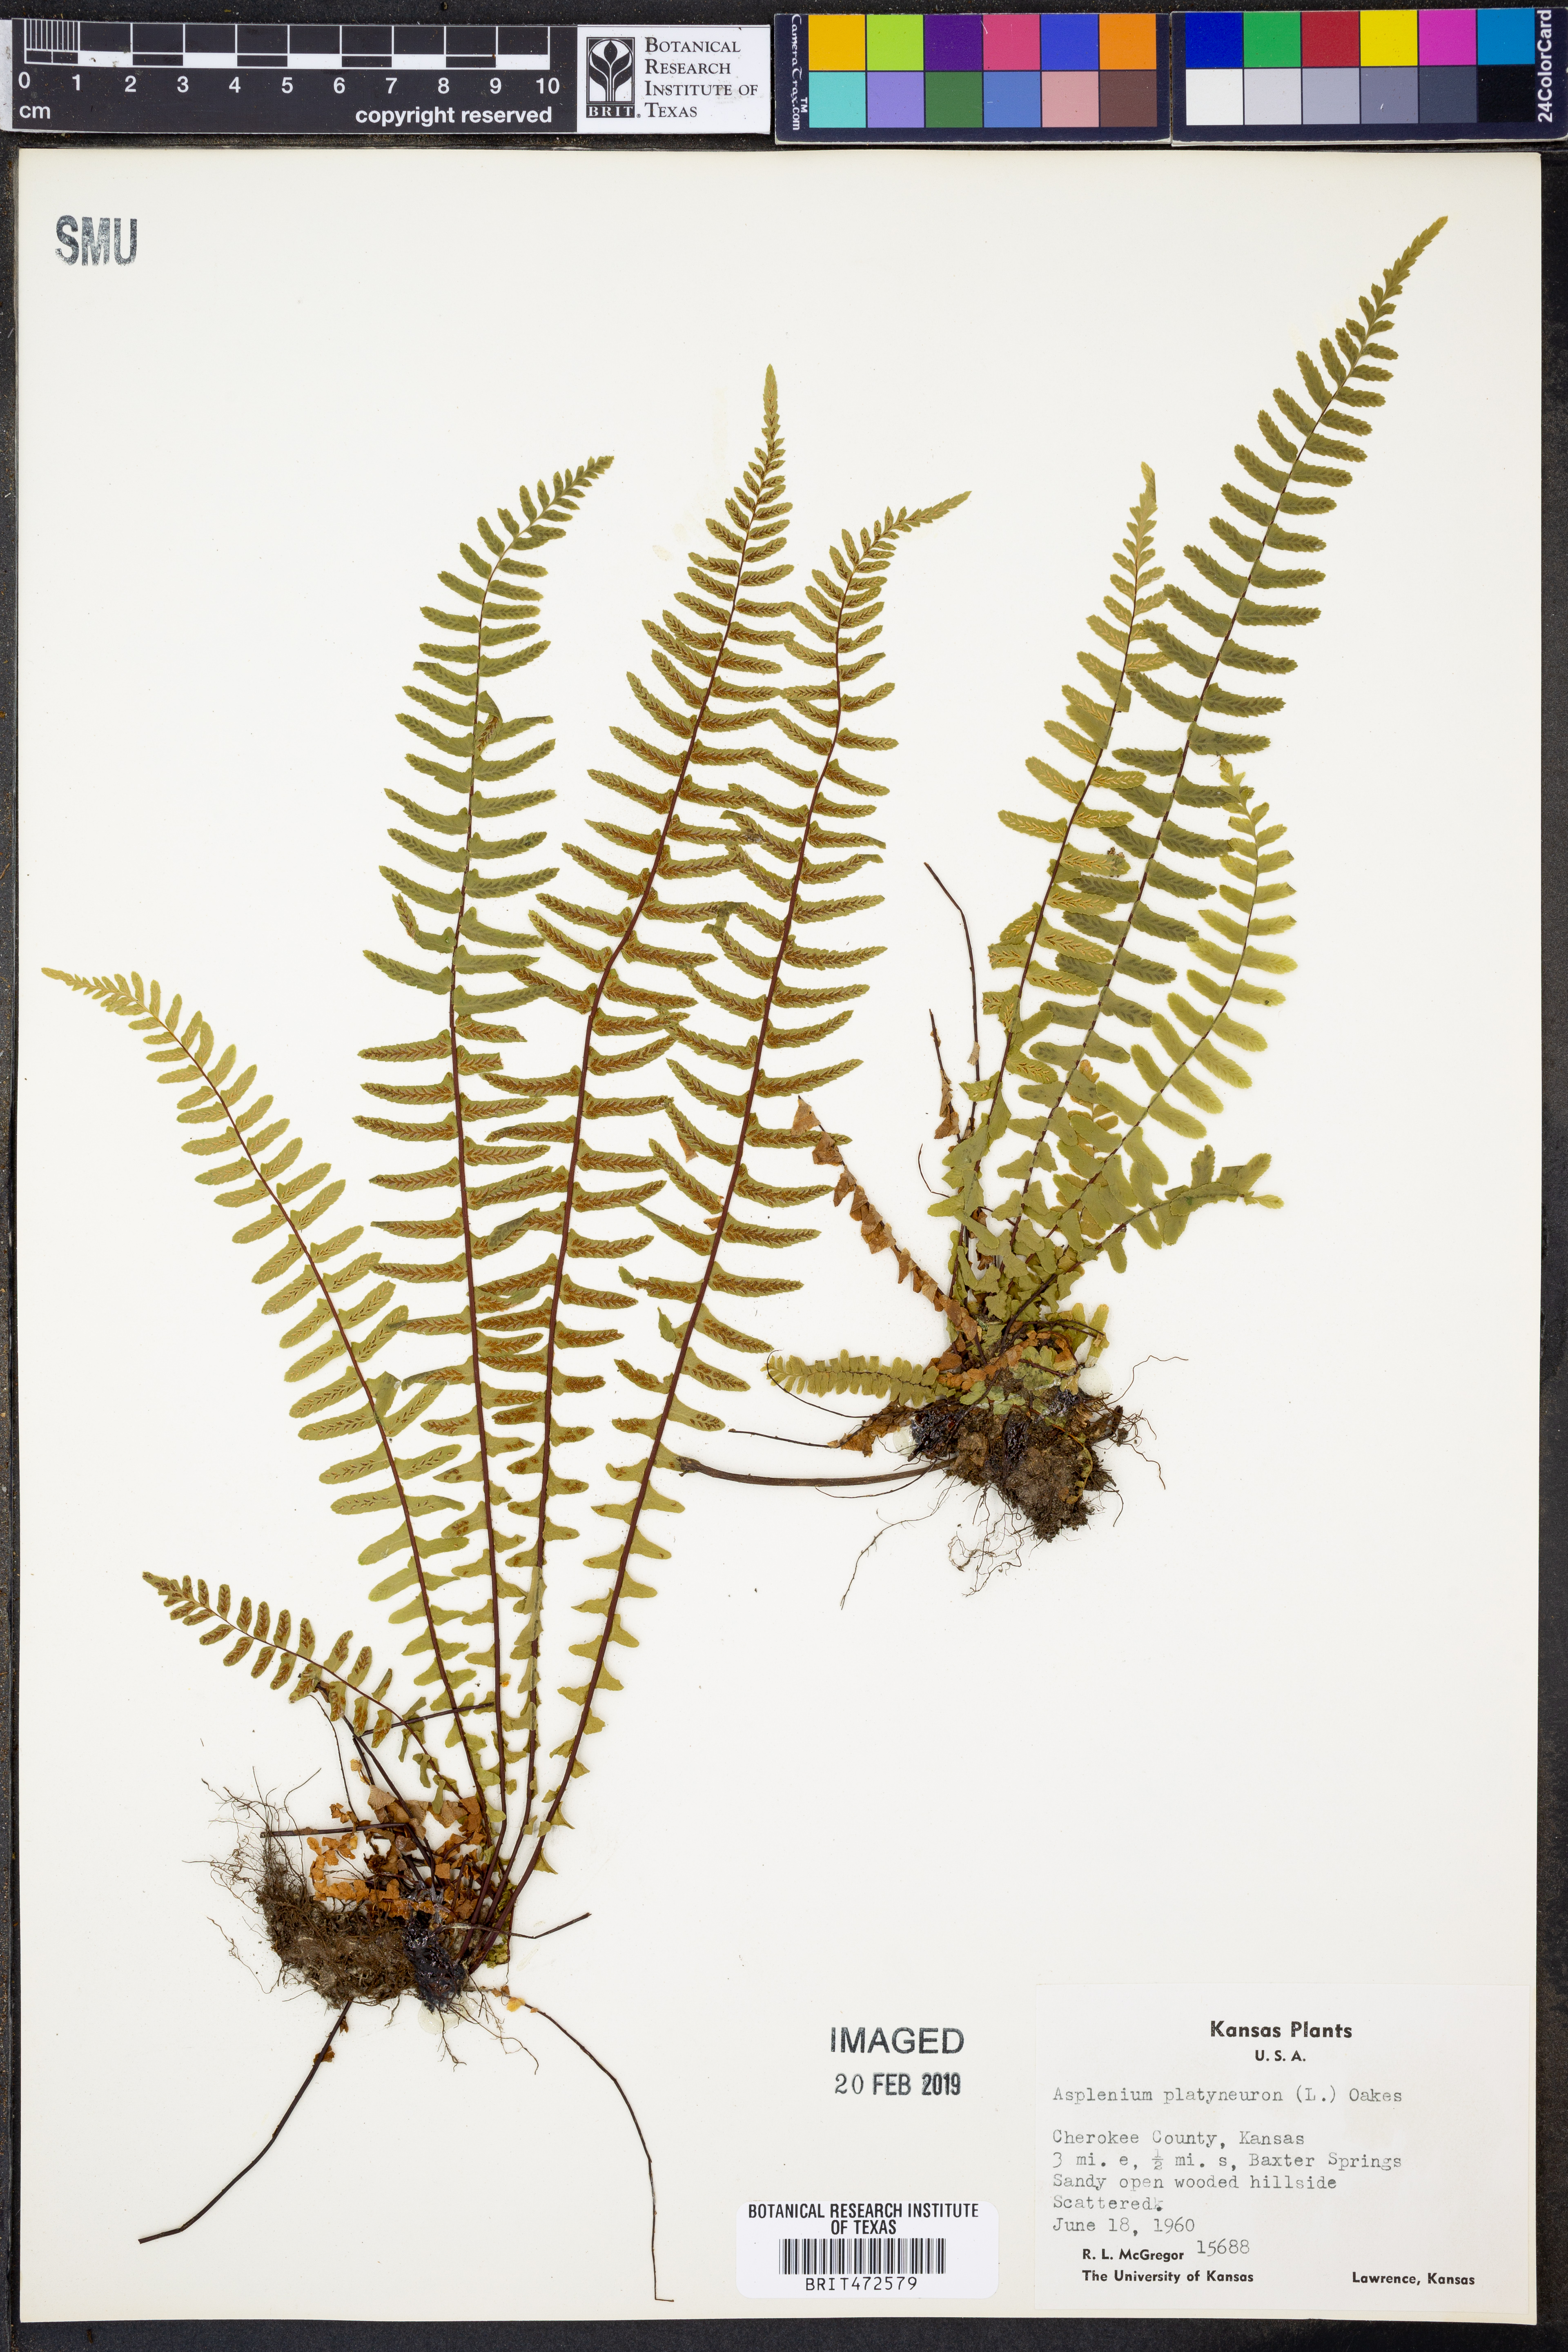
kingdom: Plantae
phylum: Tracheophyta
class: Polypodiopsida
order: Polypodiales
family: Aspleniaceae
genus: Asplenium
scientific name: Asplenium platyneuron
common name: Ebony spleenwort
